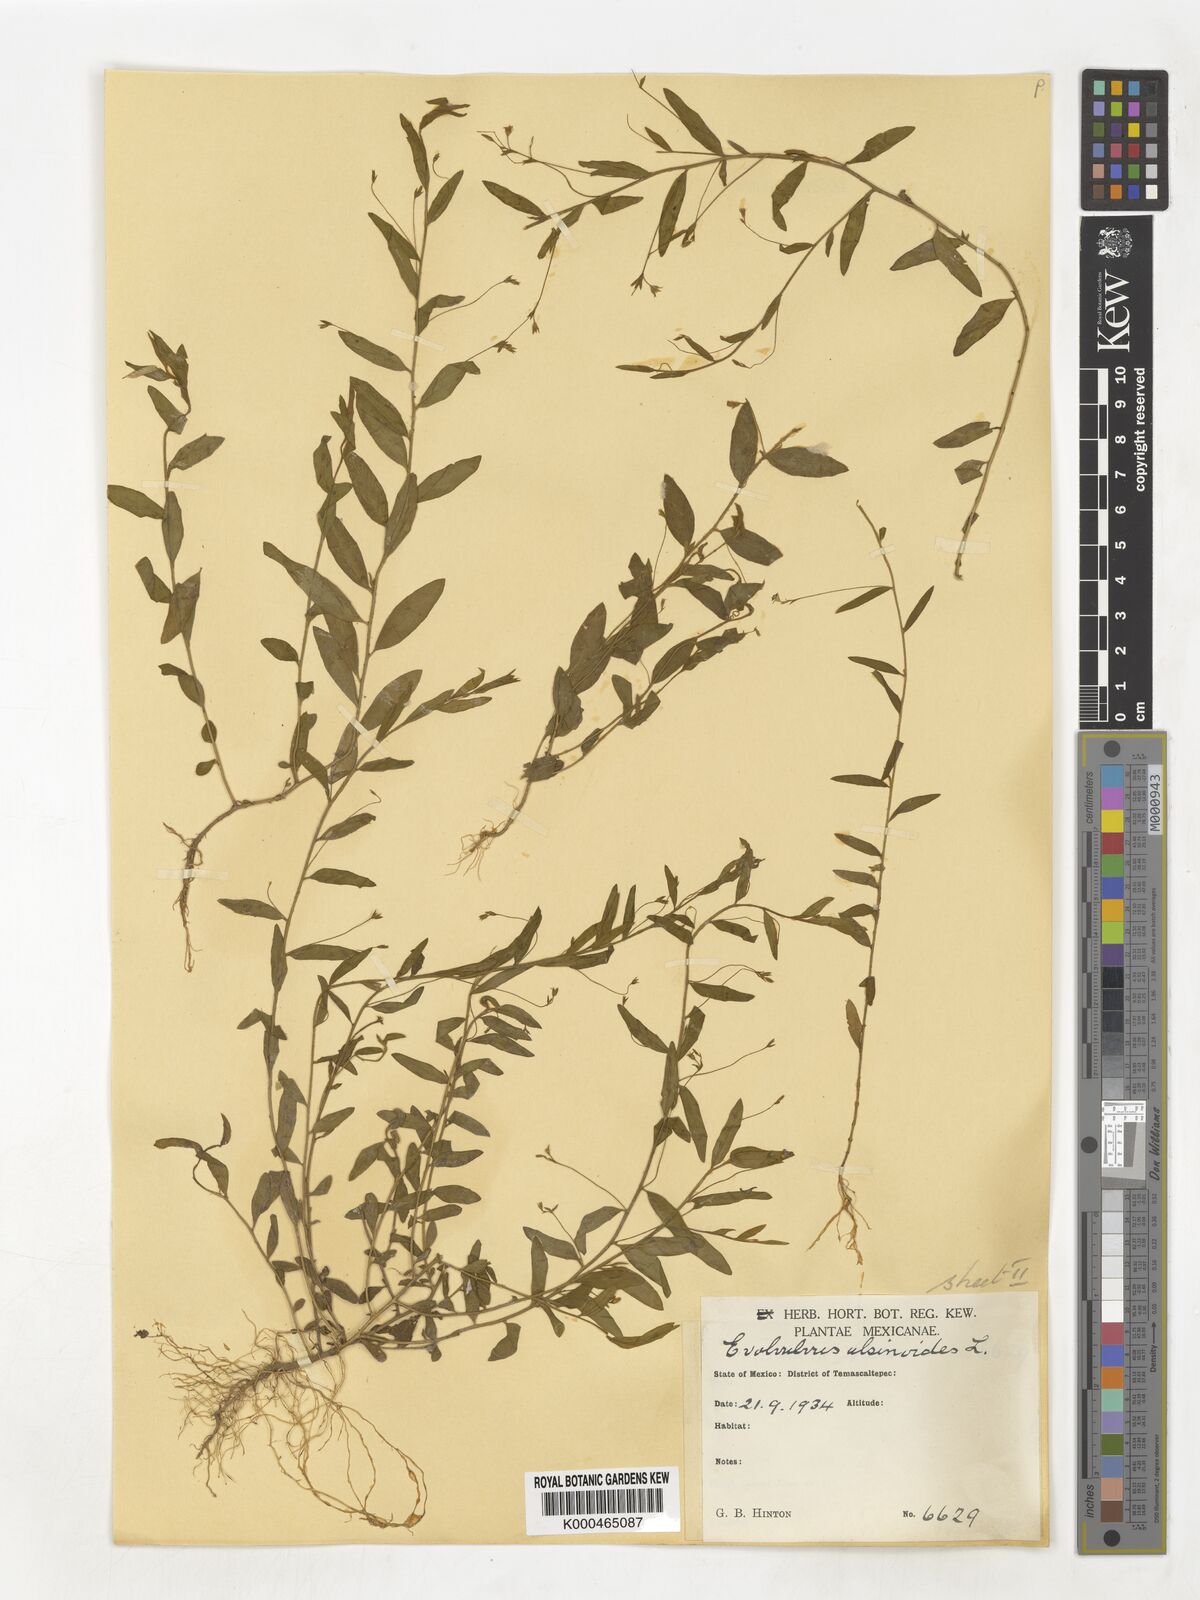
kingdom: Plantae
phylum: Tracheophyta
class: Magnoliopsida
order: Solanales
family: Convolvulaceae
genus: Evolvulus
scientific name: Evolvulus alsinoides
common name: Slender dwarf morning-glory
